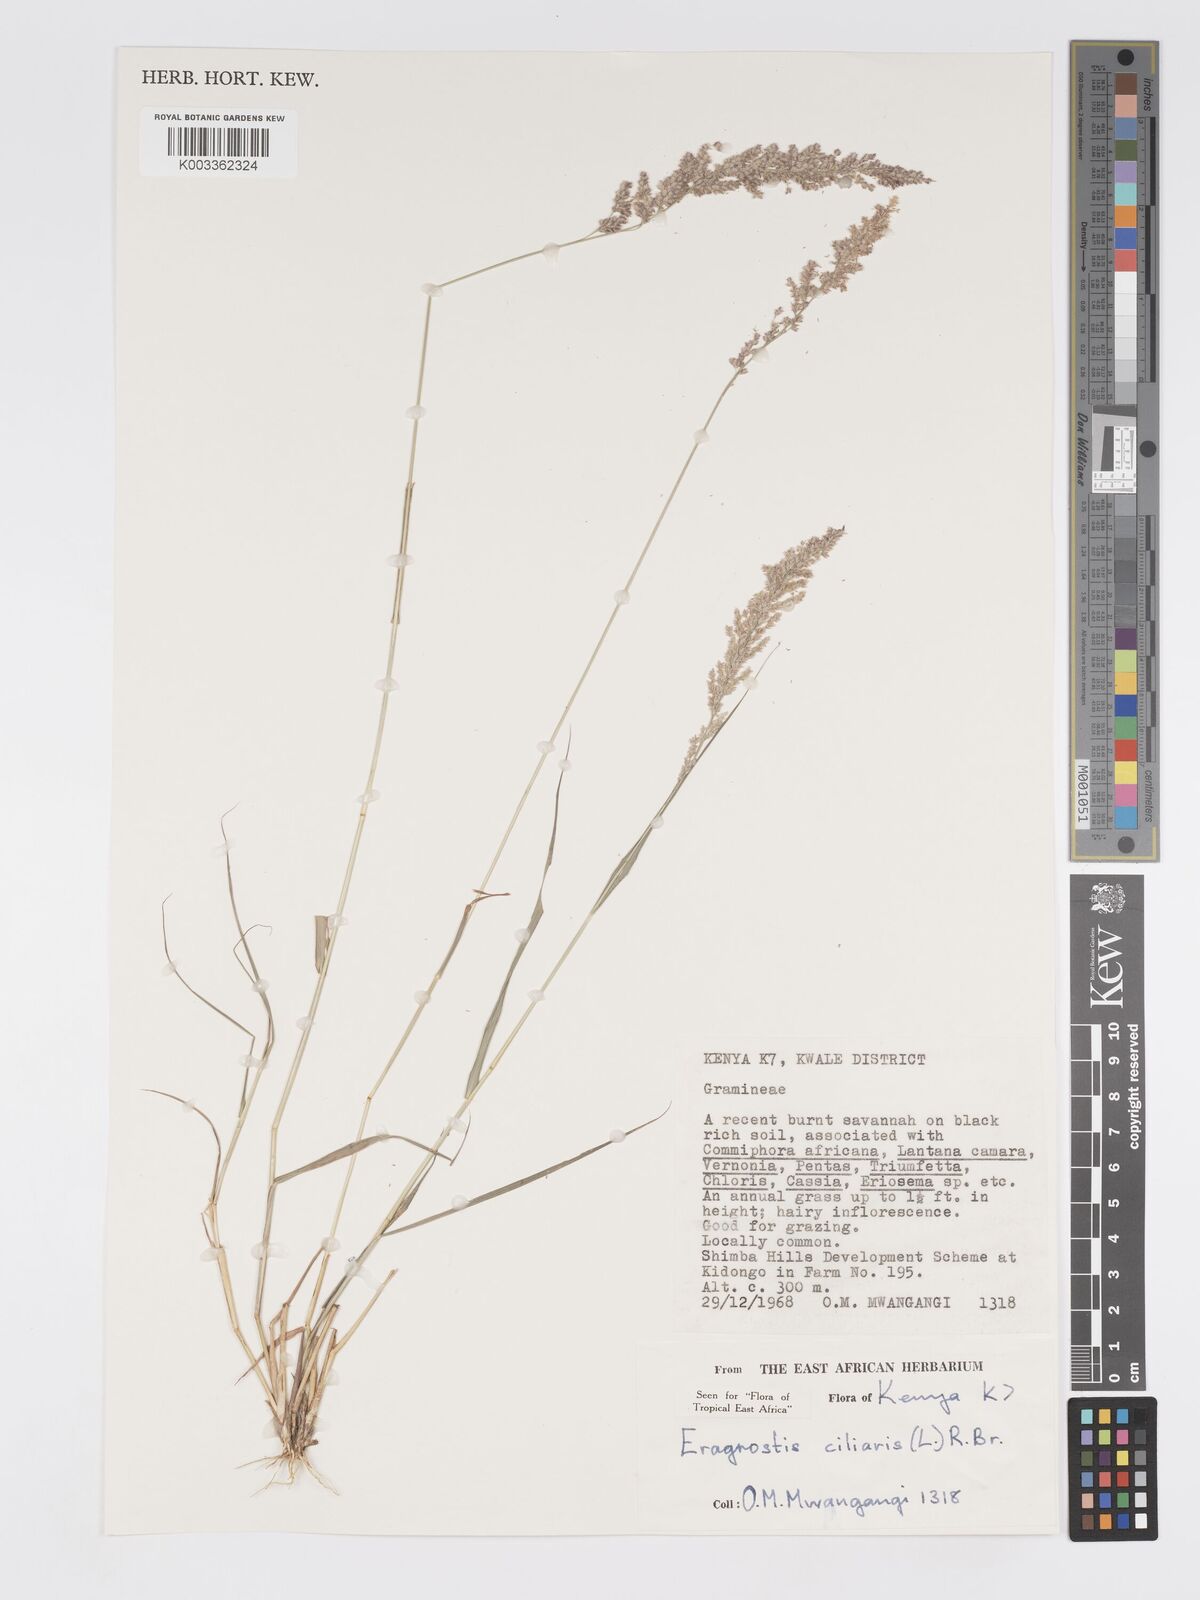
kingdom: Plantae
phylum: Tracheophyta
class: Liliopsida
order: Poales
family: Poaceae
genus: Eragrostis
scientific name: Eragrostis ciliaris
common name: Gophertail lovegrass
